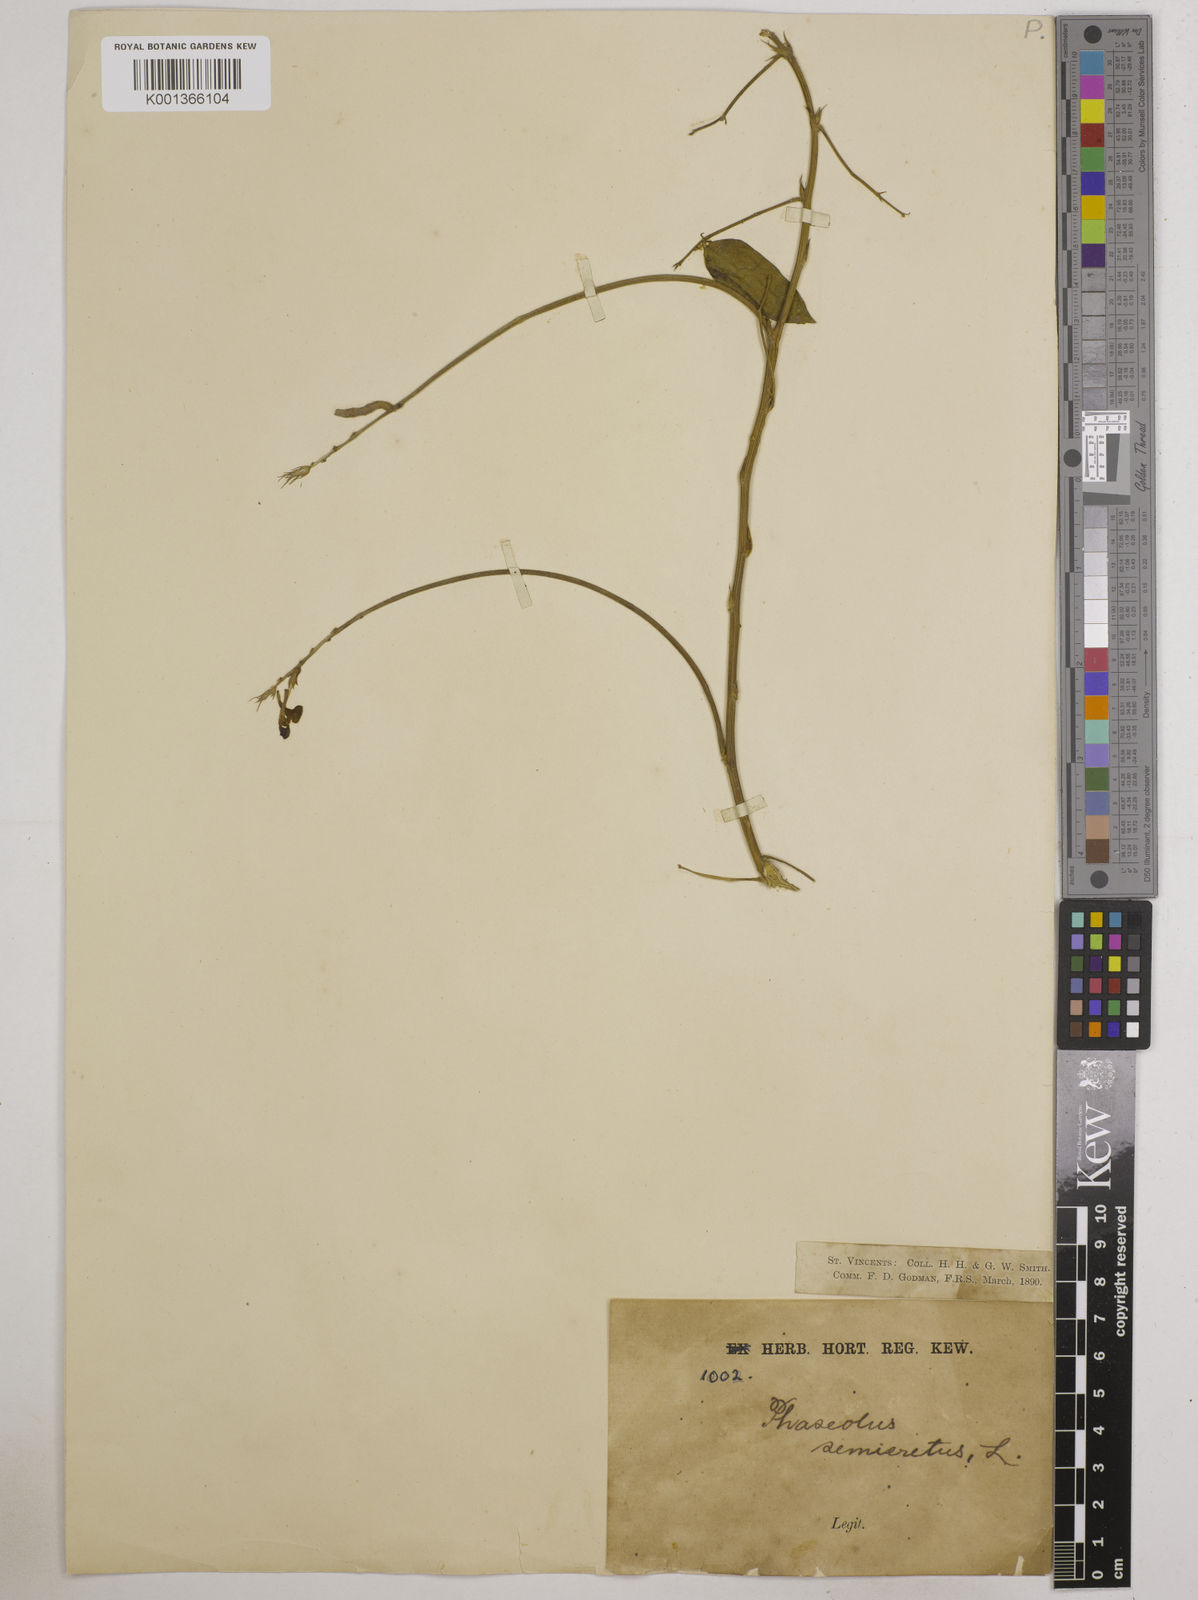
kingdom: Plantae
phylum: Tracheophyta
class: Magnoliopsida
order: Fabales
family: Fabaceae
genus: Macroptilium
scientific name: Macroptilium lathyroides
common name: Wild bushbean
